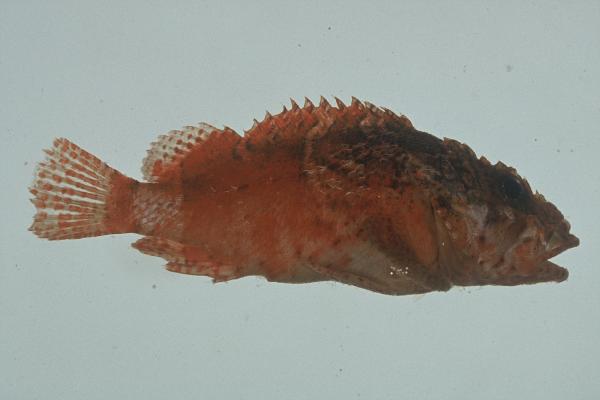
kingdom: Animalia
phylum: Chordata
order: Scorpaeniformes
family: Scorpaenidae
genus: Scorpaenodes
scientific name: Scorpaenodes parvipinnis
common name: Coral scorpionfish
